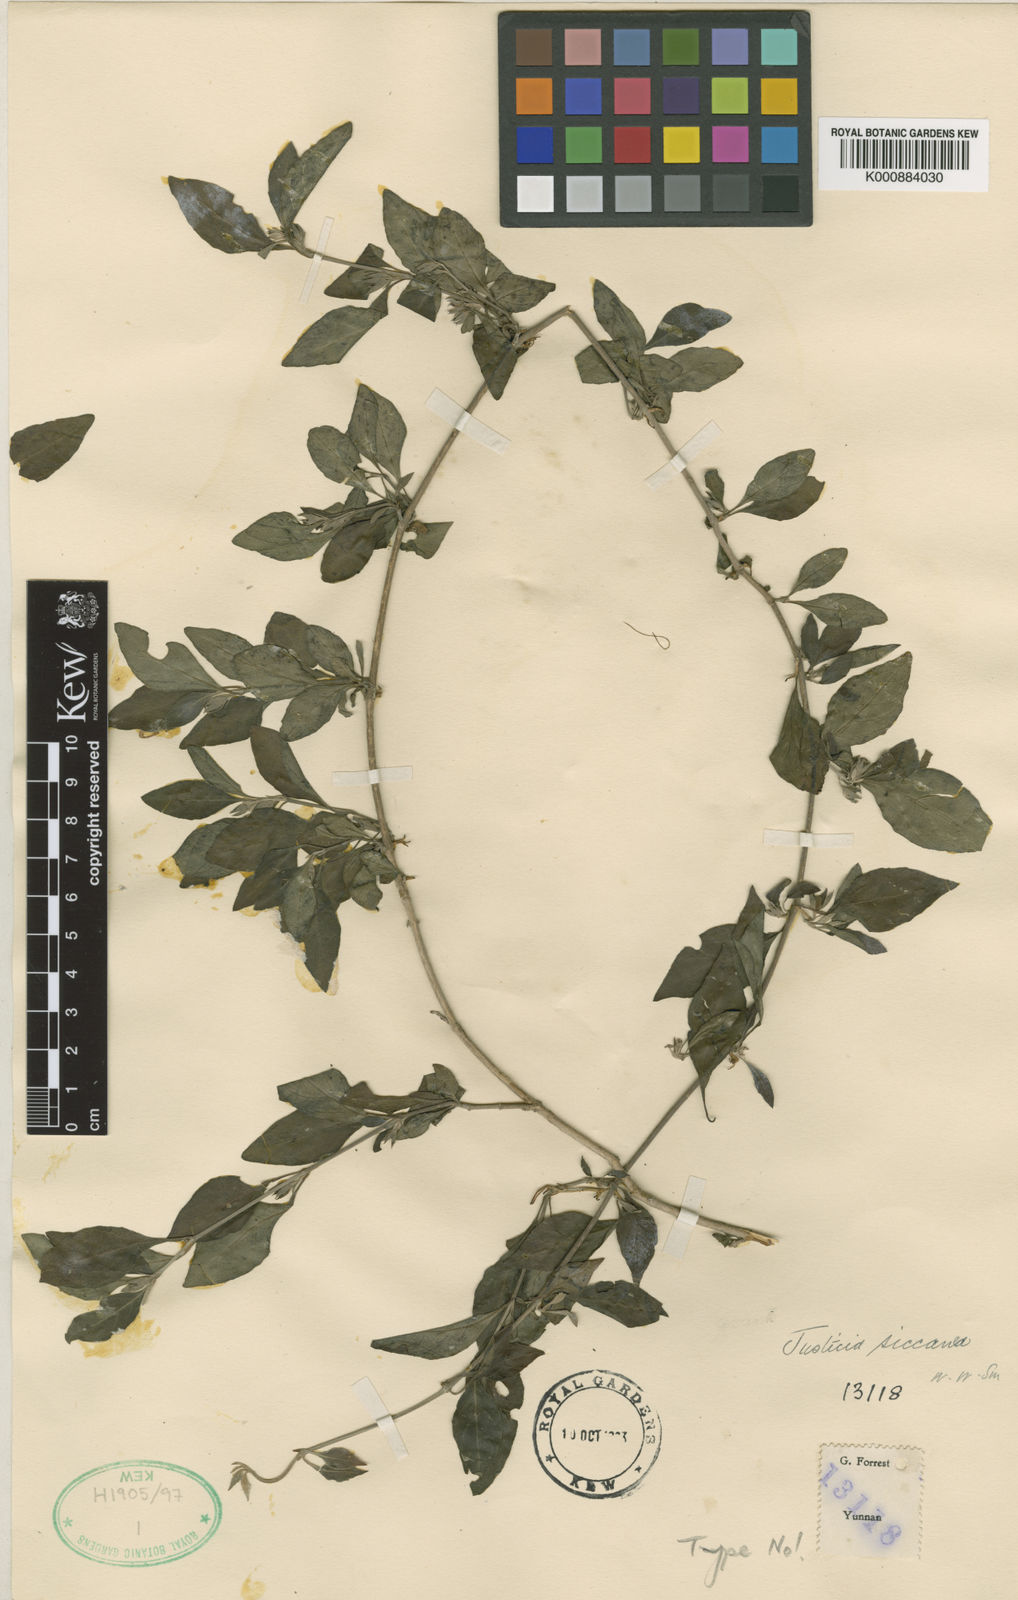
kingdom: Plantae
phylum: Tracheophyta
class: Magnoliopsida
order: Lamiales
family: Acanthaceae
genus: Justicia
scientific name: Justicia siccanea
